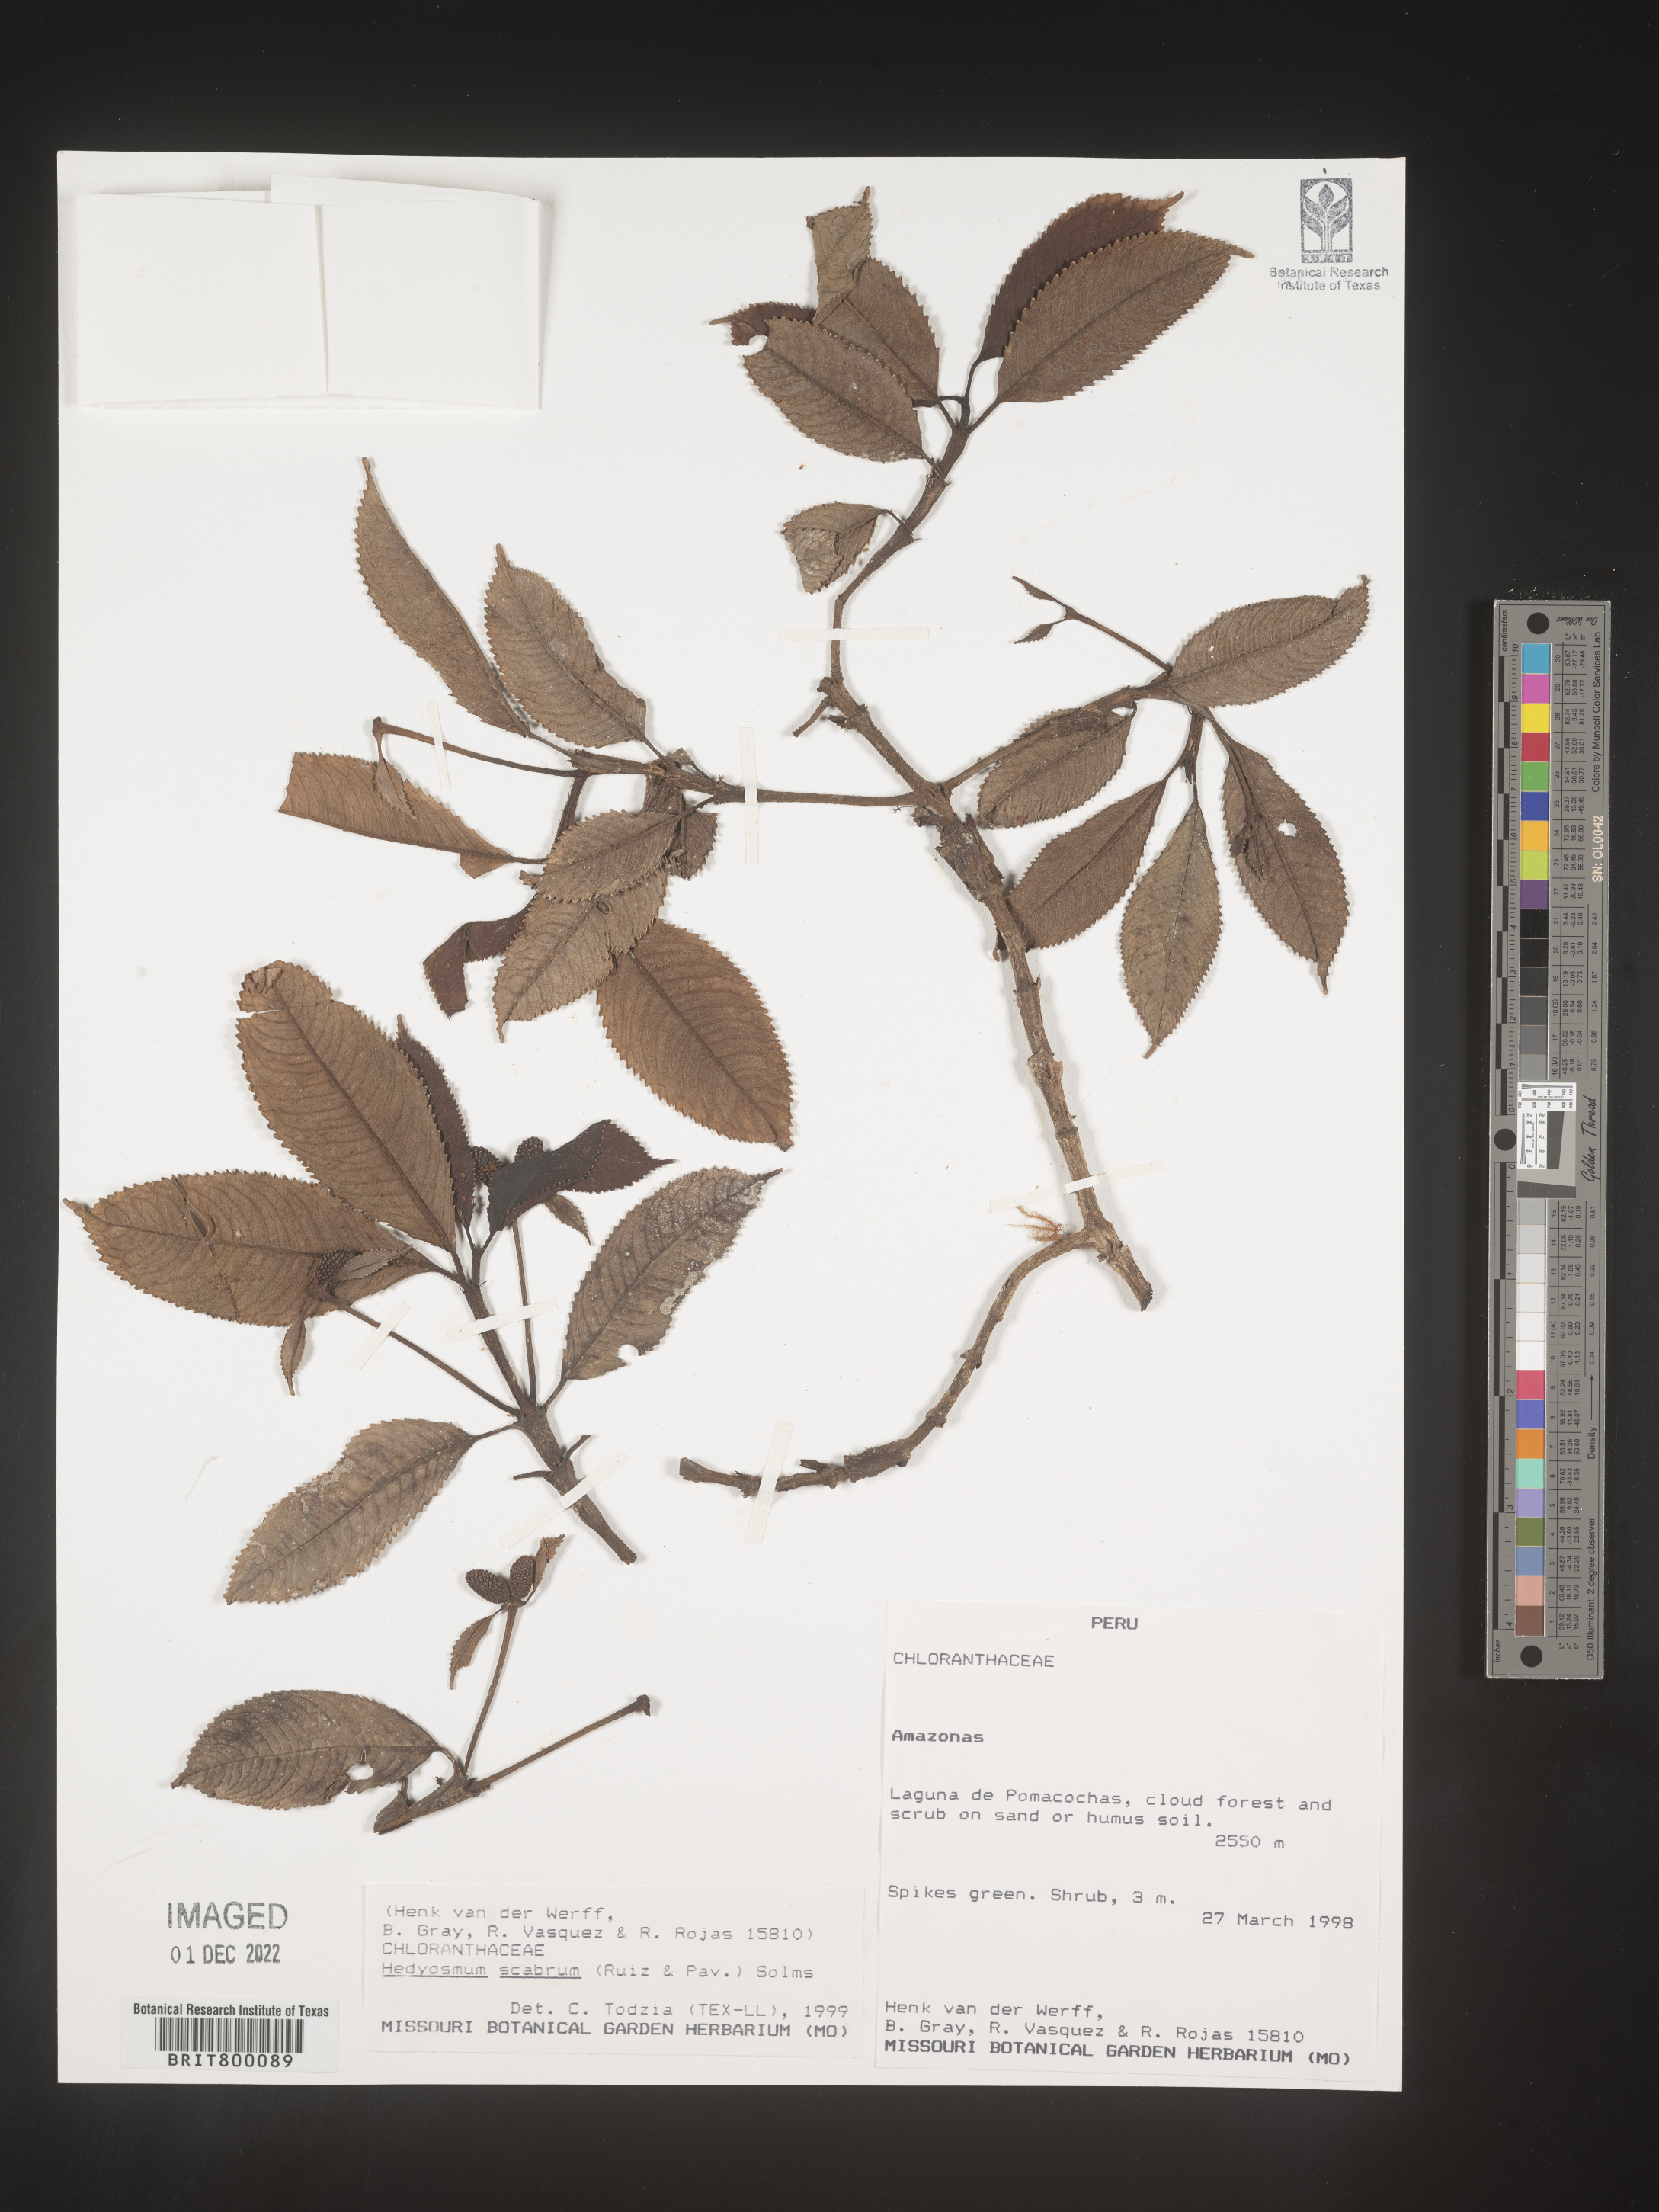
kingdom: Plantae
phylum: Tracheophyta
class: Magnoliopsida
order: Chloranthales
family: Chloranthaceae
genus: Hedyosmum
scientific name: Hedyosmum
